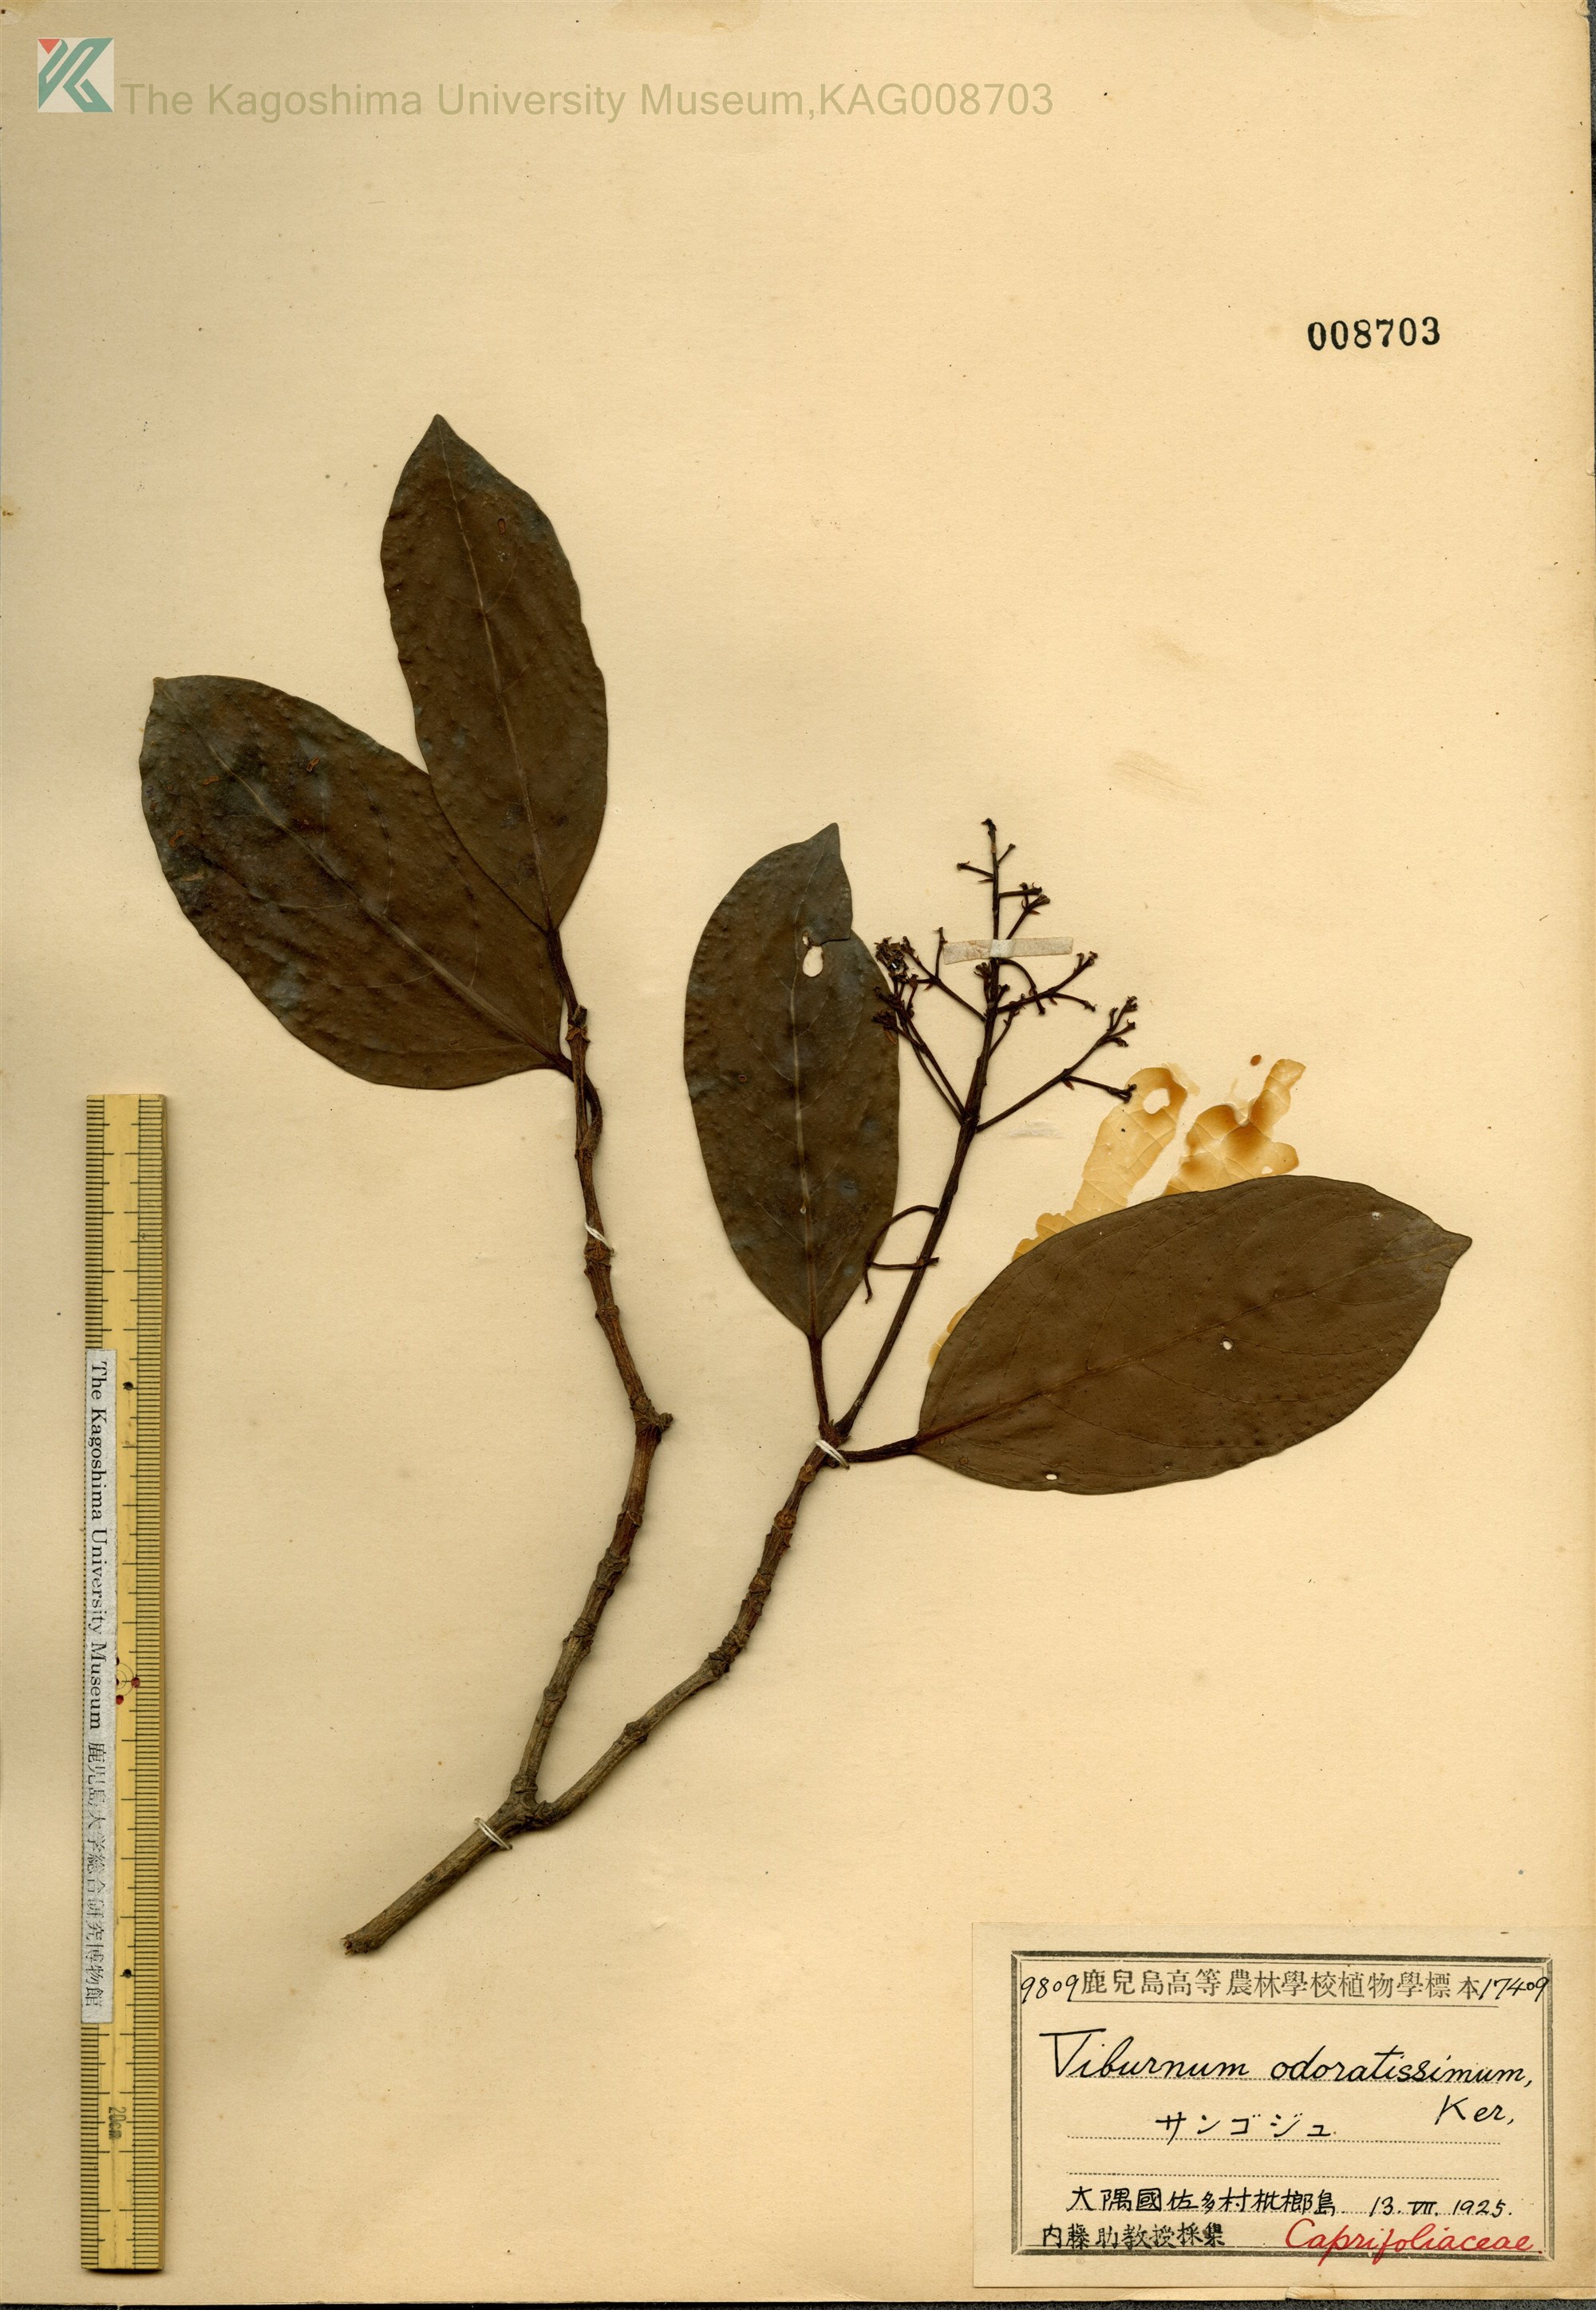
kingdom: Plantae
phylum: Tracheophyta
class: Magnoliopsida
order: Dipsacales
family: Viburnaceae
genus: Viburnum
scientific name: Viburnum odoratissimum
